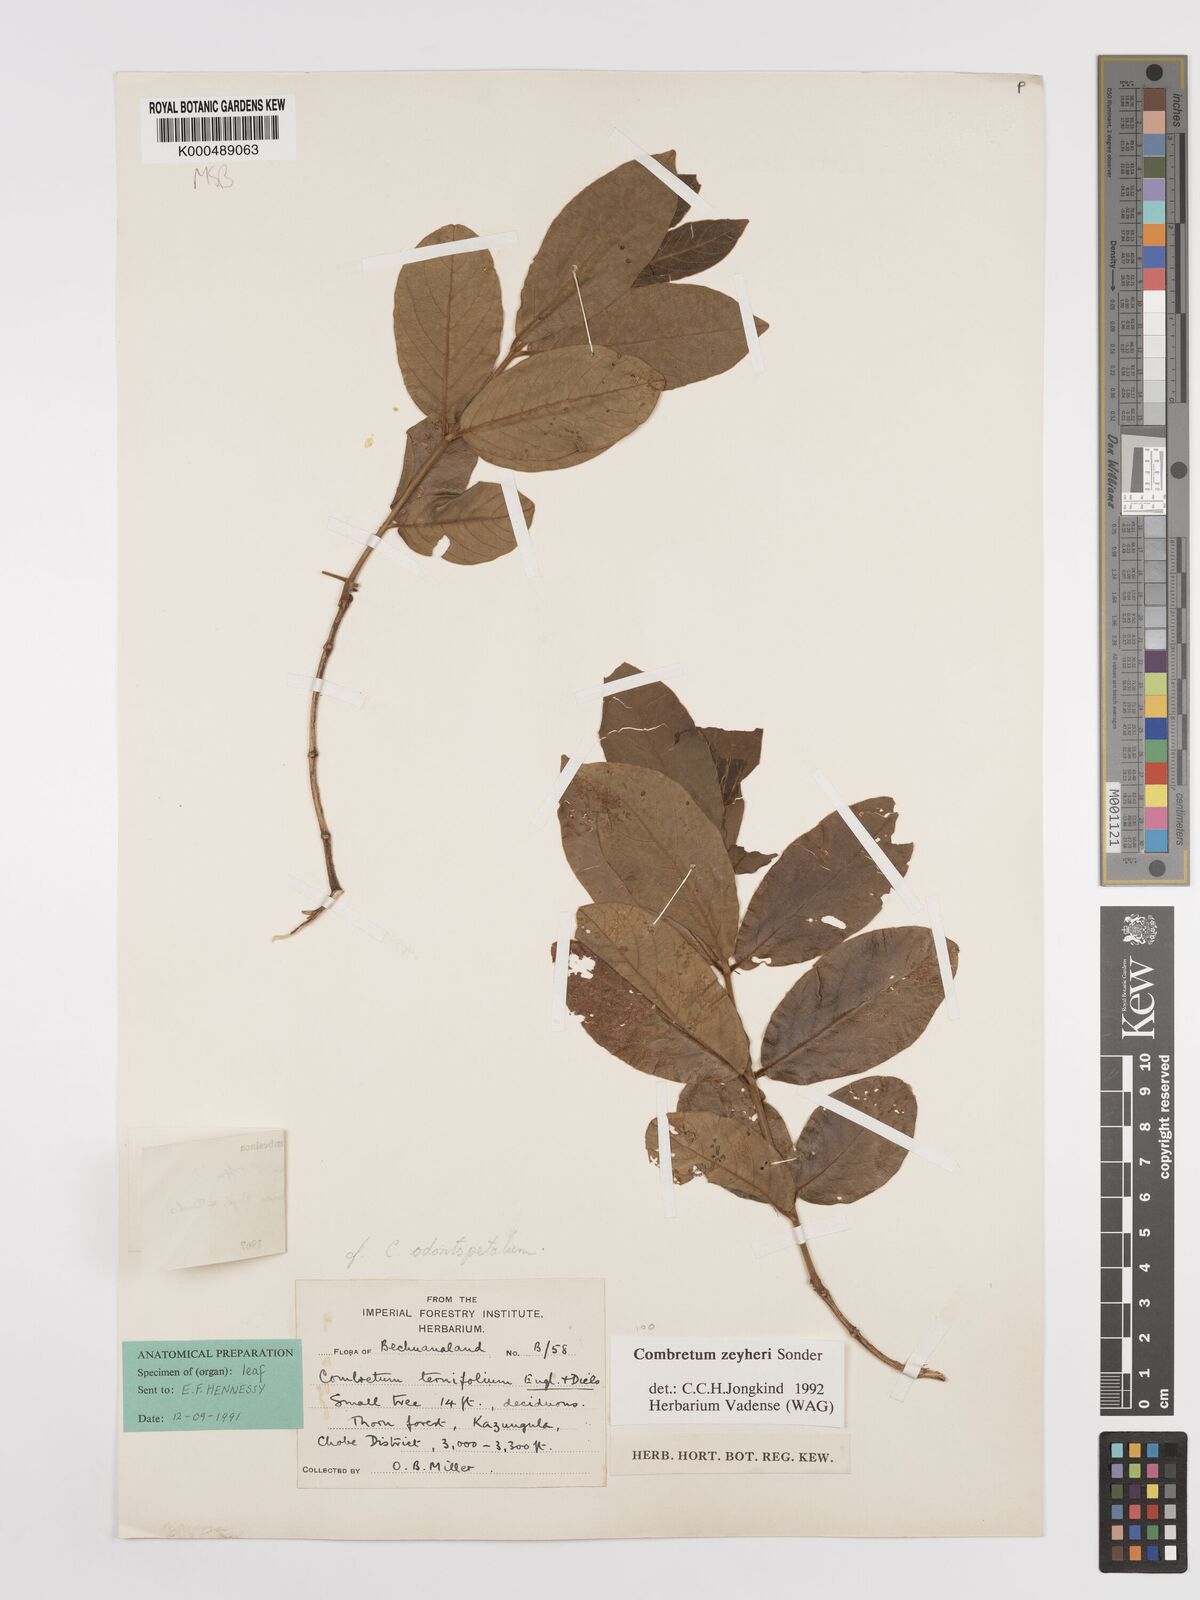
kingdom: Plantae
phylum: Tracheophyta
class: Magnoliopsida
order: Myrtales
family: Combretaceae
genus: Combretum
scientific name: Combretum zeyheri
